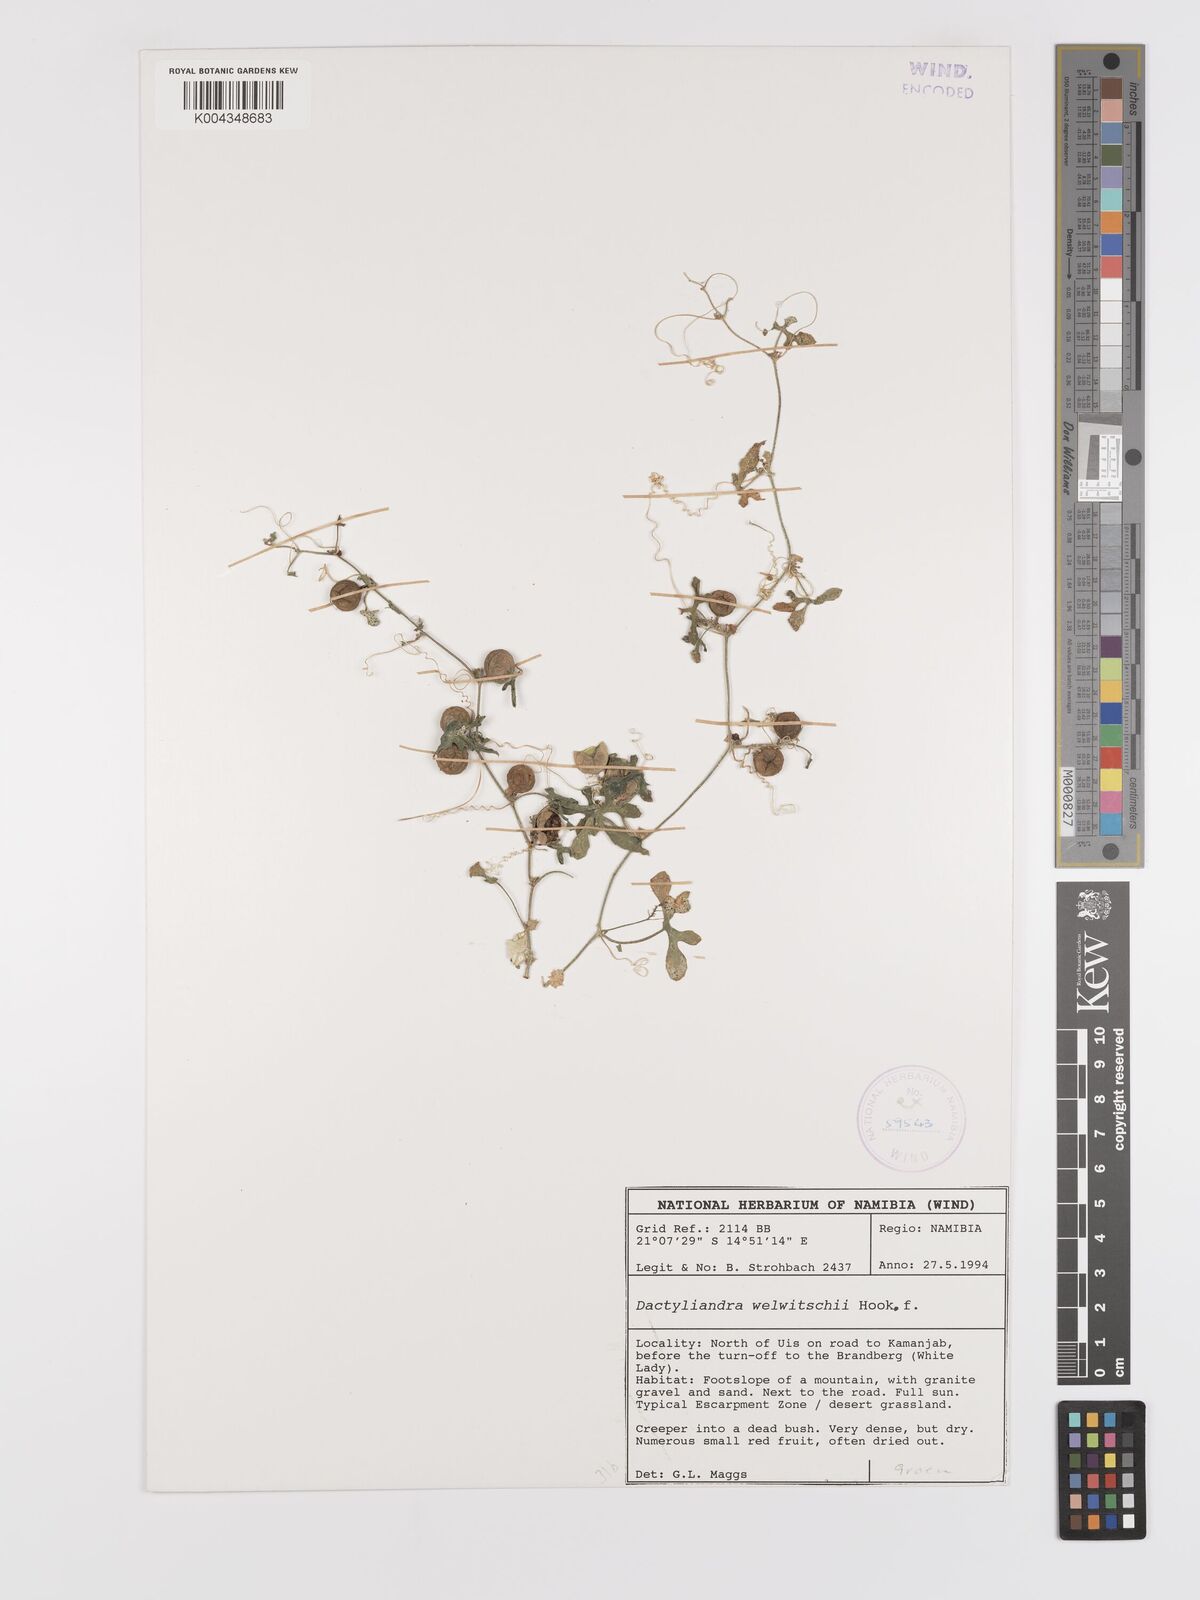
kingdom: Plantae
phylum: Tracheophyta
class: Magnoliopsida
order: Cucurbitales
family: Cucurbitaceae
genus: Dactyliandra
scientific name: Dactyliandra welwitschii
